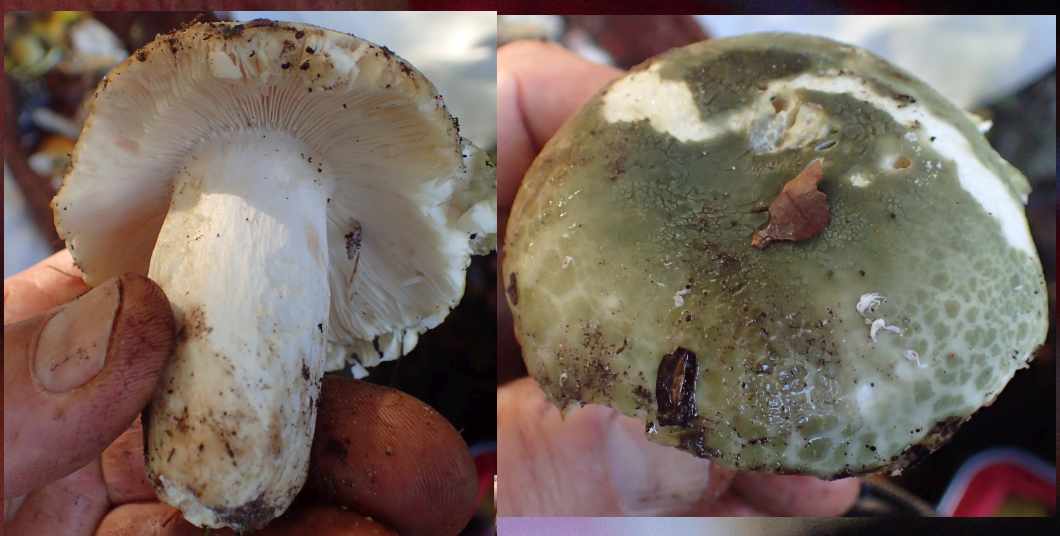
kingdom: Fungi
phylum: Basidiomycota
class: Agaricomycetes
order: Russulales
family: Russulaceae
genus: Russula
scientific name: Russula virescens
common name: spanskgrøn skørhat
